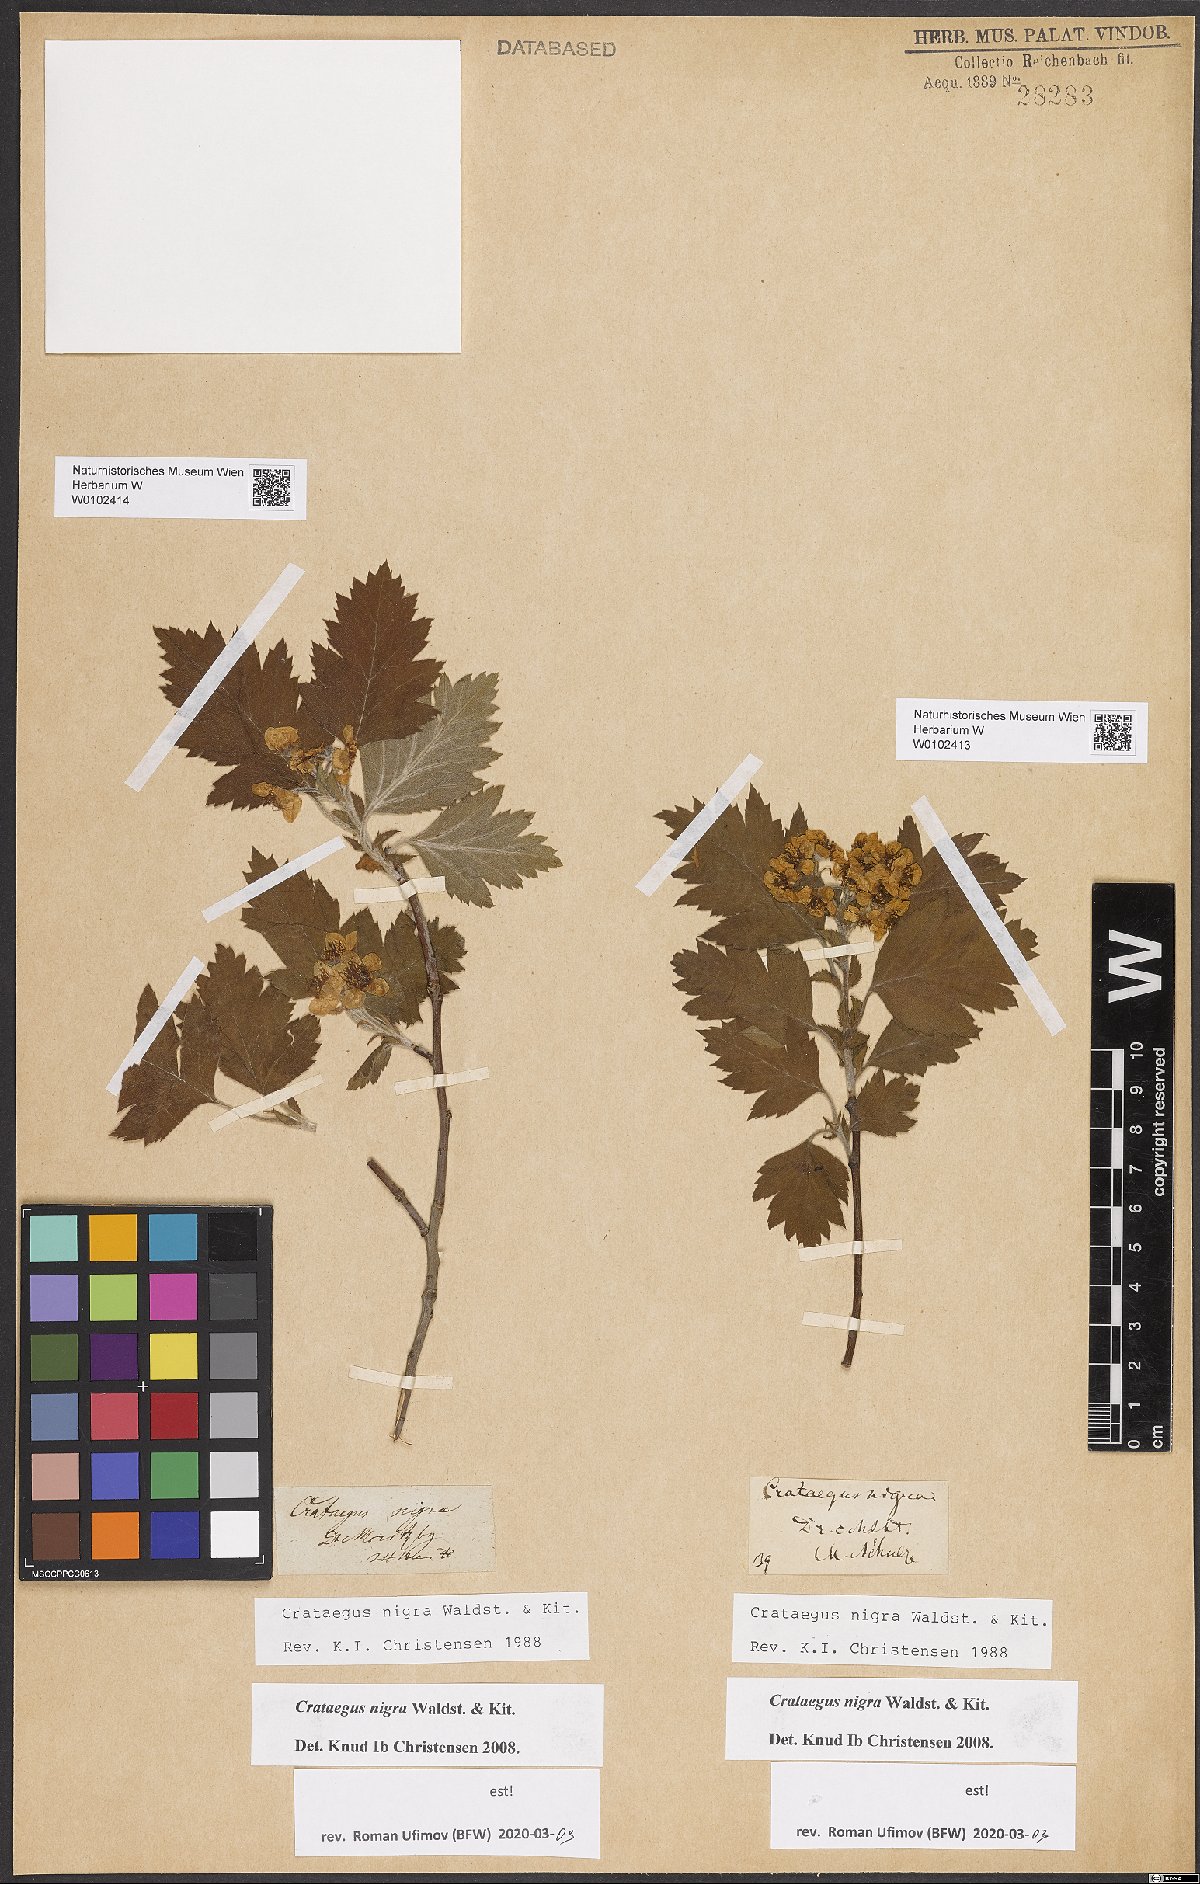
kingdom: Plantae
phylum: Tracheophyta
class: Magnoliopsida
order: Rosales
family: Rosaceae
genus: Crataegus
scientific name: Crataegus nigra
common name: Hungarian thorn
